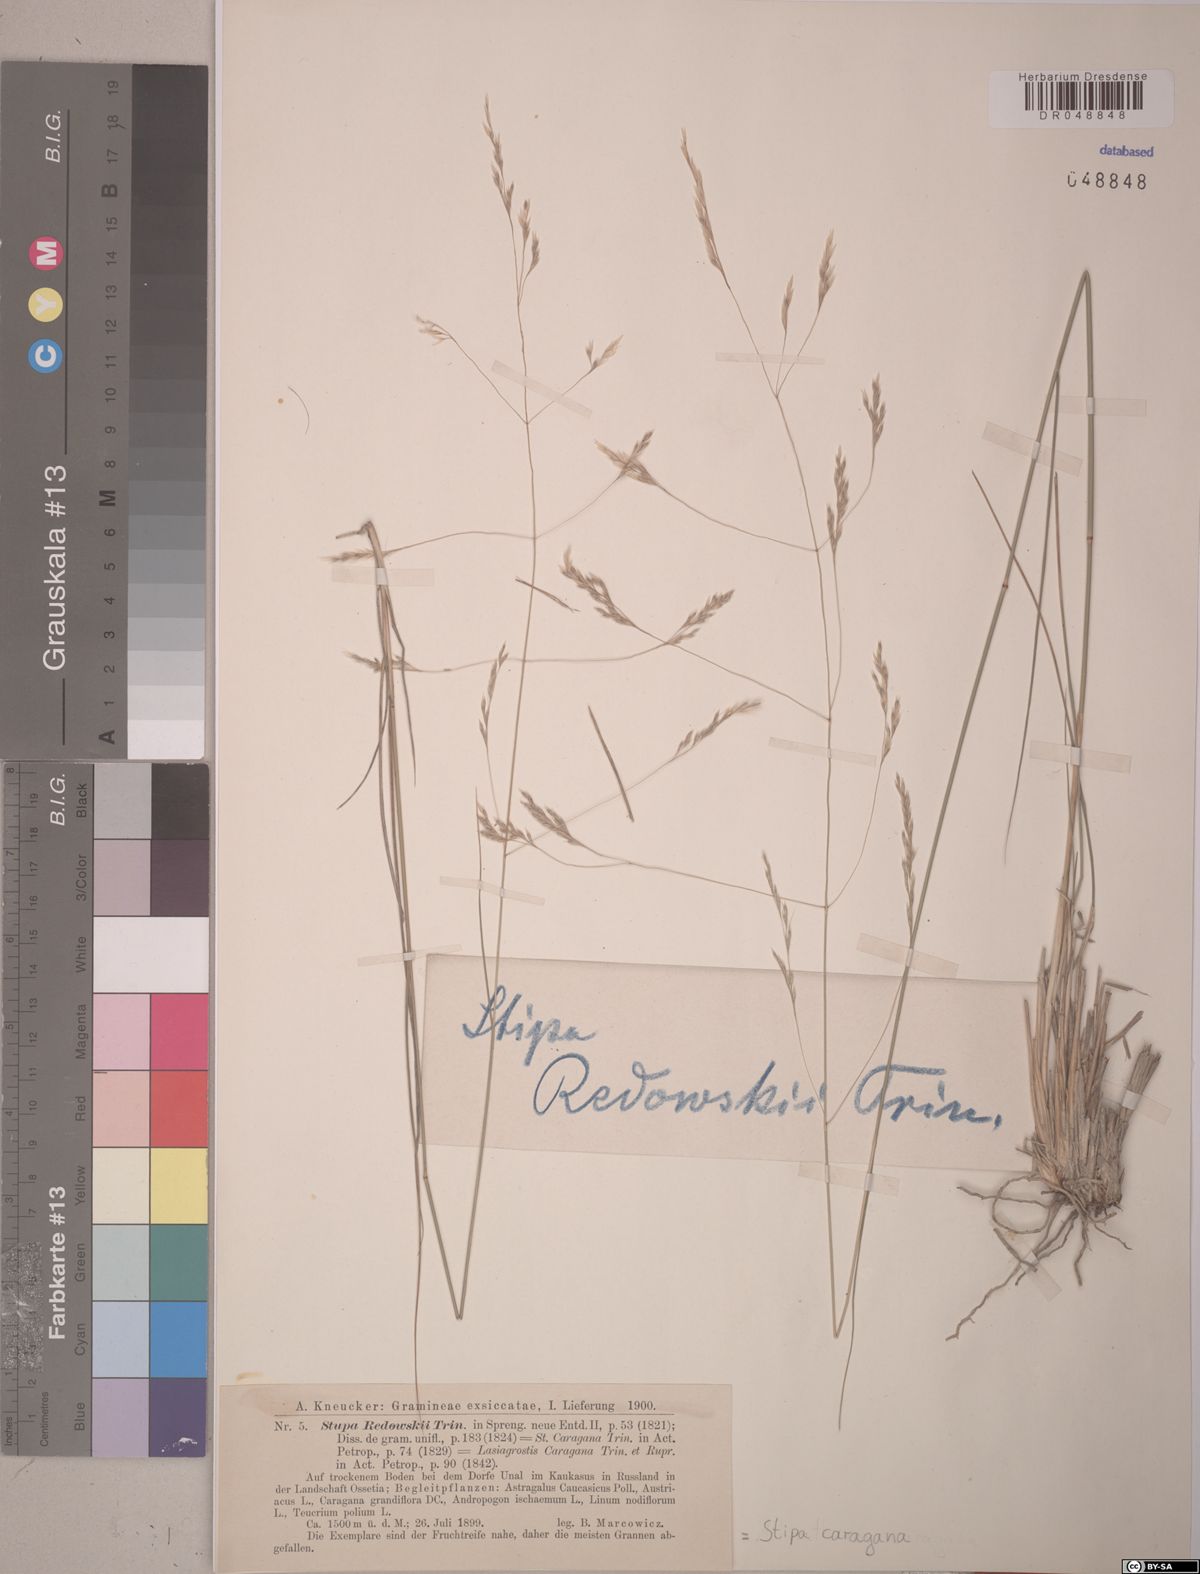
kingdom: Plantae
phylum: Tracheophyta
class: Liliopsida
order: Poales
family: Poaceae
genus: Stipa
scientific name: Stipa conferta
